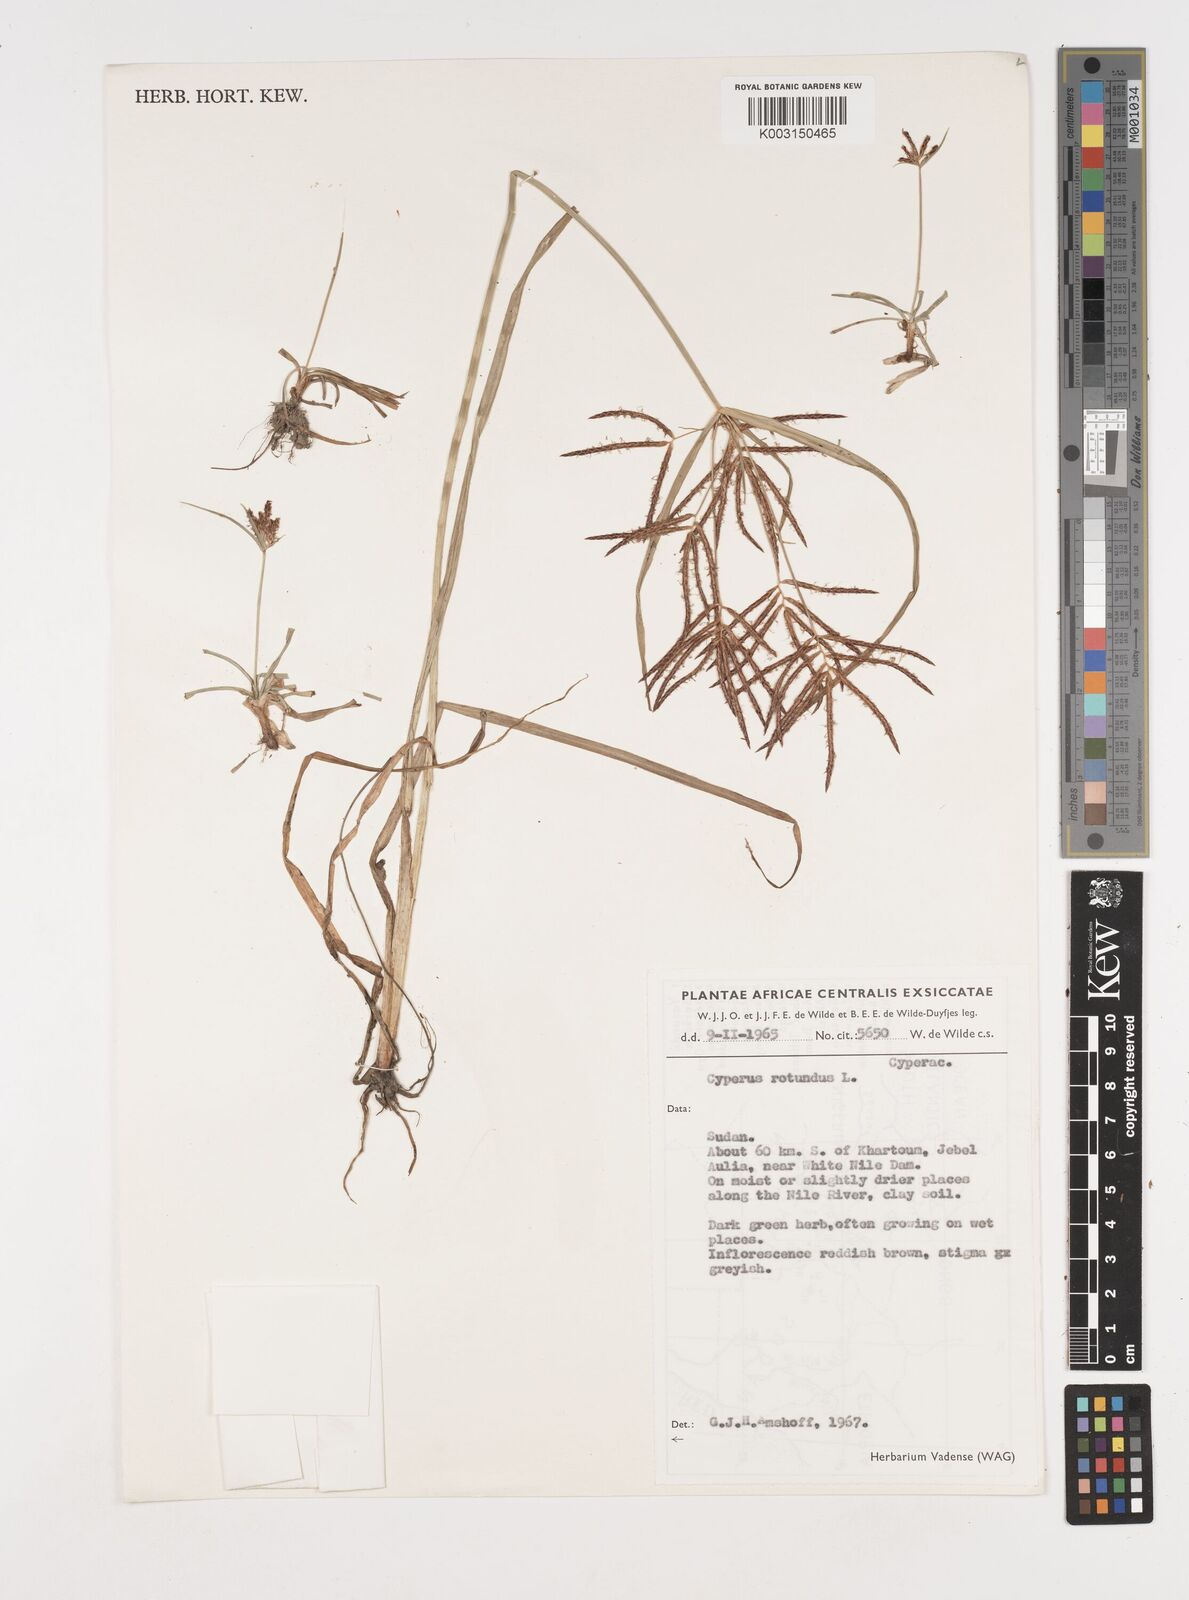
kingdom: Plantae
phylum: Tracheophyta
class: Liliopsida
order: Poales
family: Cyperaceae
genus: Cyperus
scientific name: Cyperus rotundus
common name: Nutgrass
